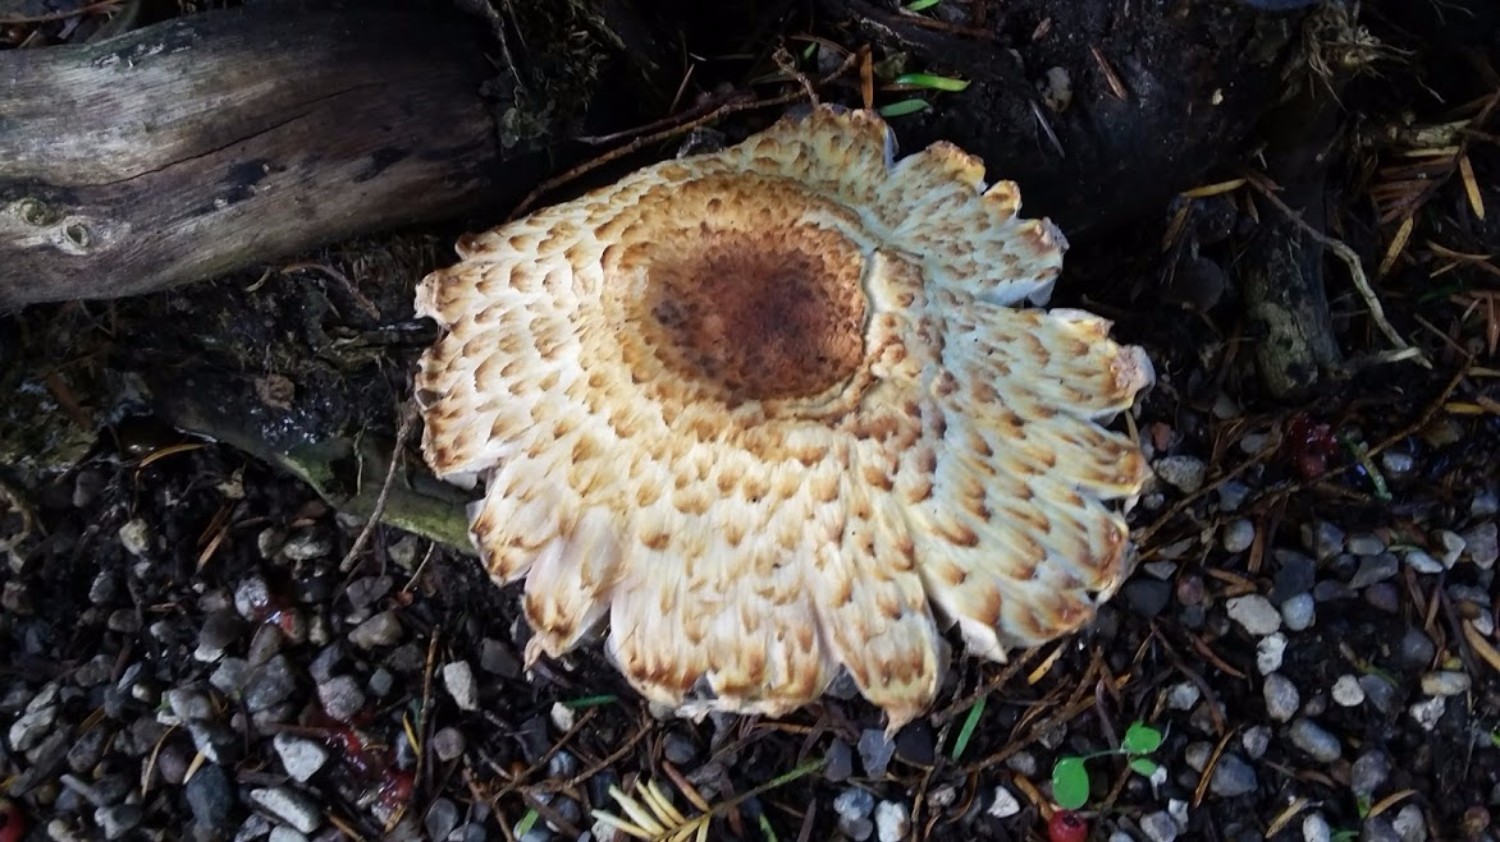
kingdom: Fungi
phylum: Basidiomycota
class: Agaricomycetes
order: Agaricales
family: Agaricaceae
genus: Agaricus
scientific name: Agaricus augustus
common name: prægtig champignon
